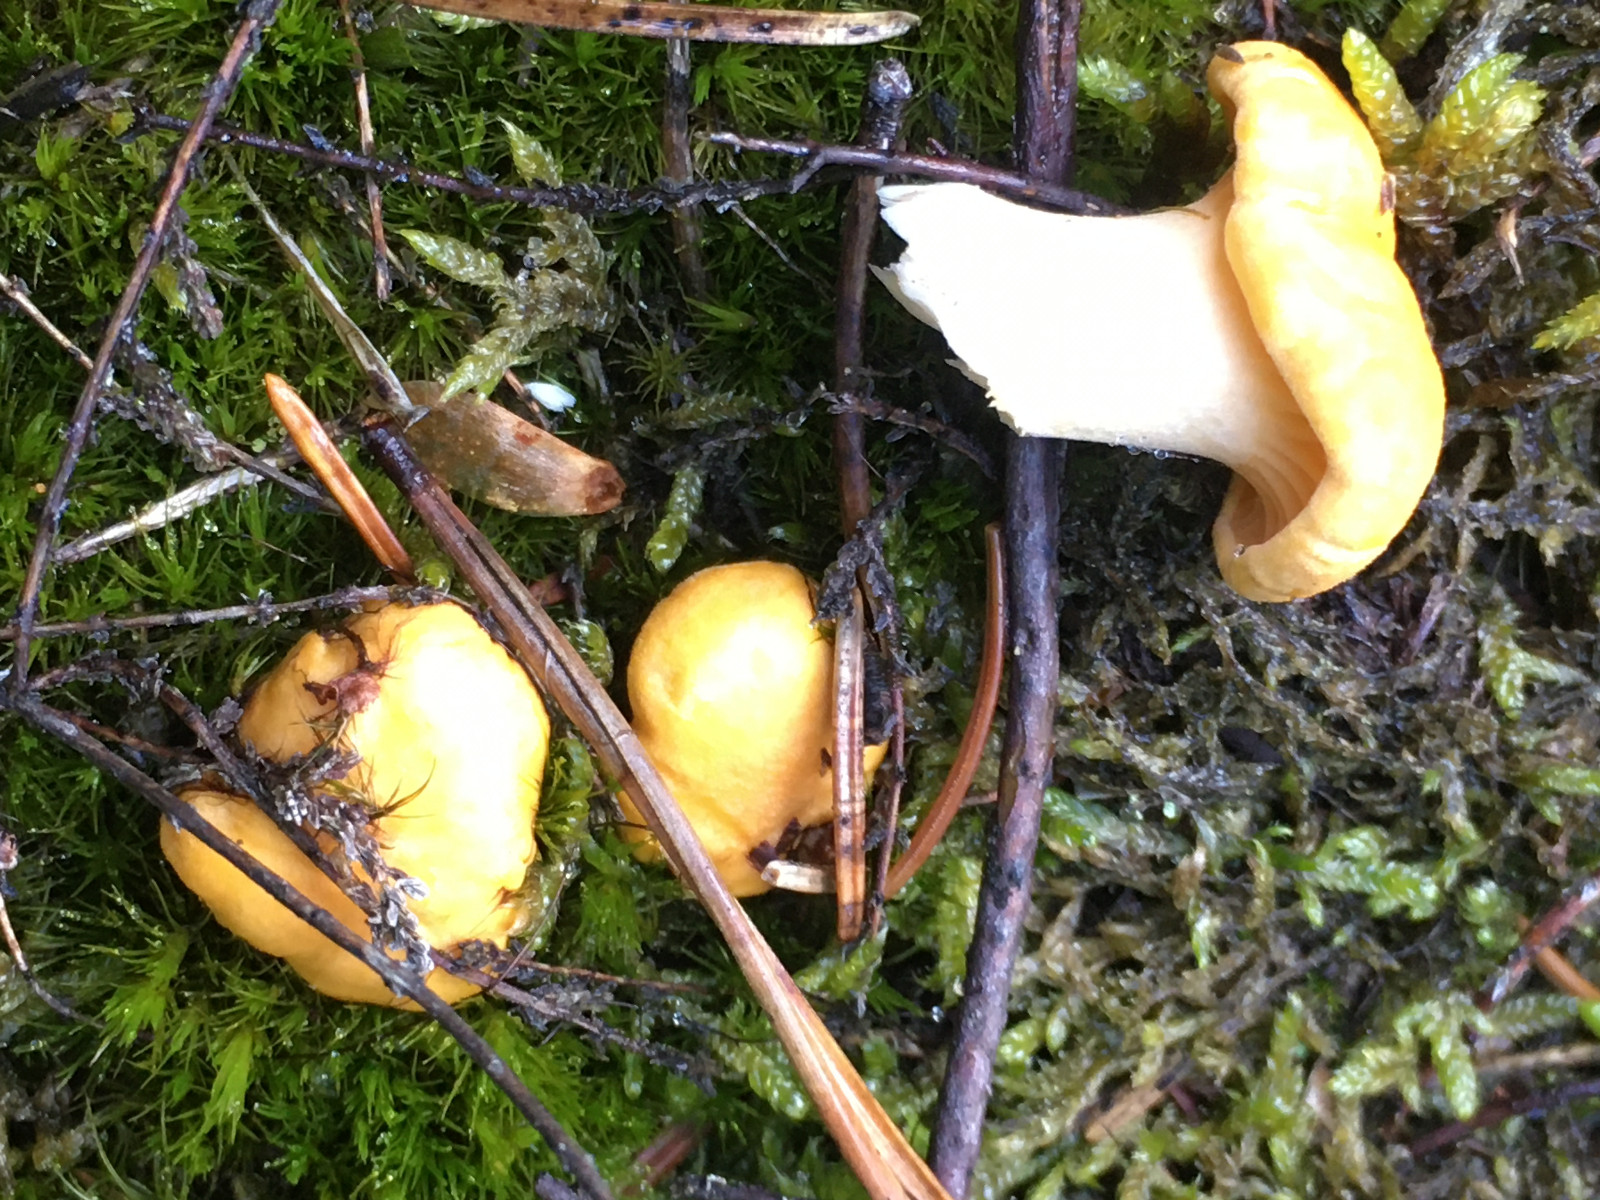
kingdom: Fungi
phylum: Basidiomycota
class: Agaricomycetes
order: Cantharellales
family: Hydnaceae
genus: Cantharellus
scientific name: Cantharellus cibarius
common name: almindelig kantarel
